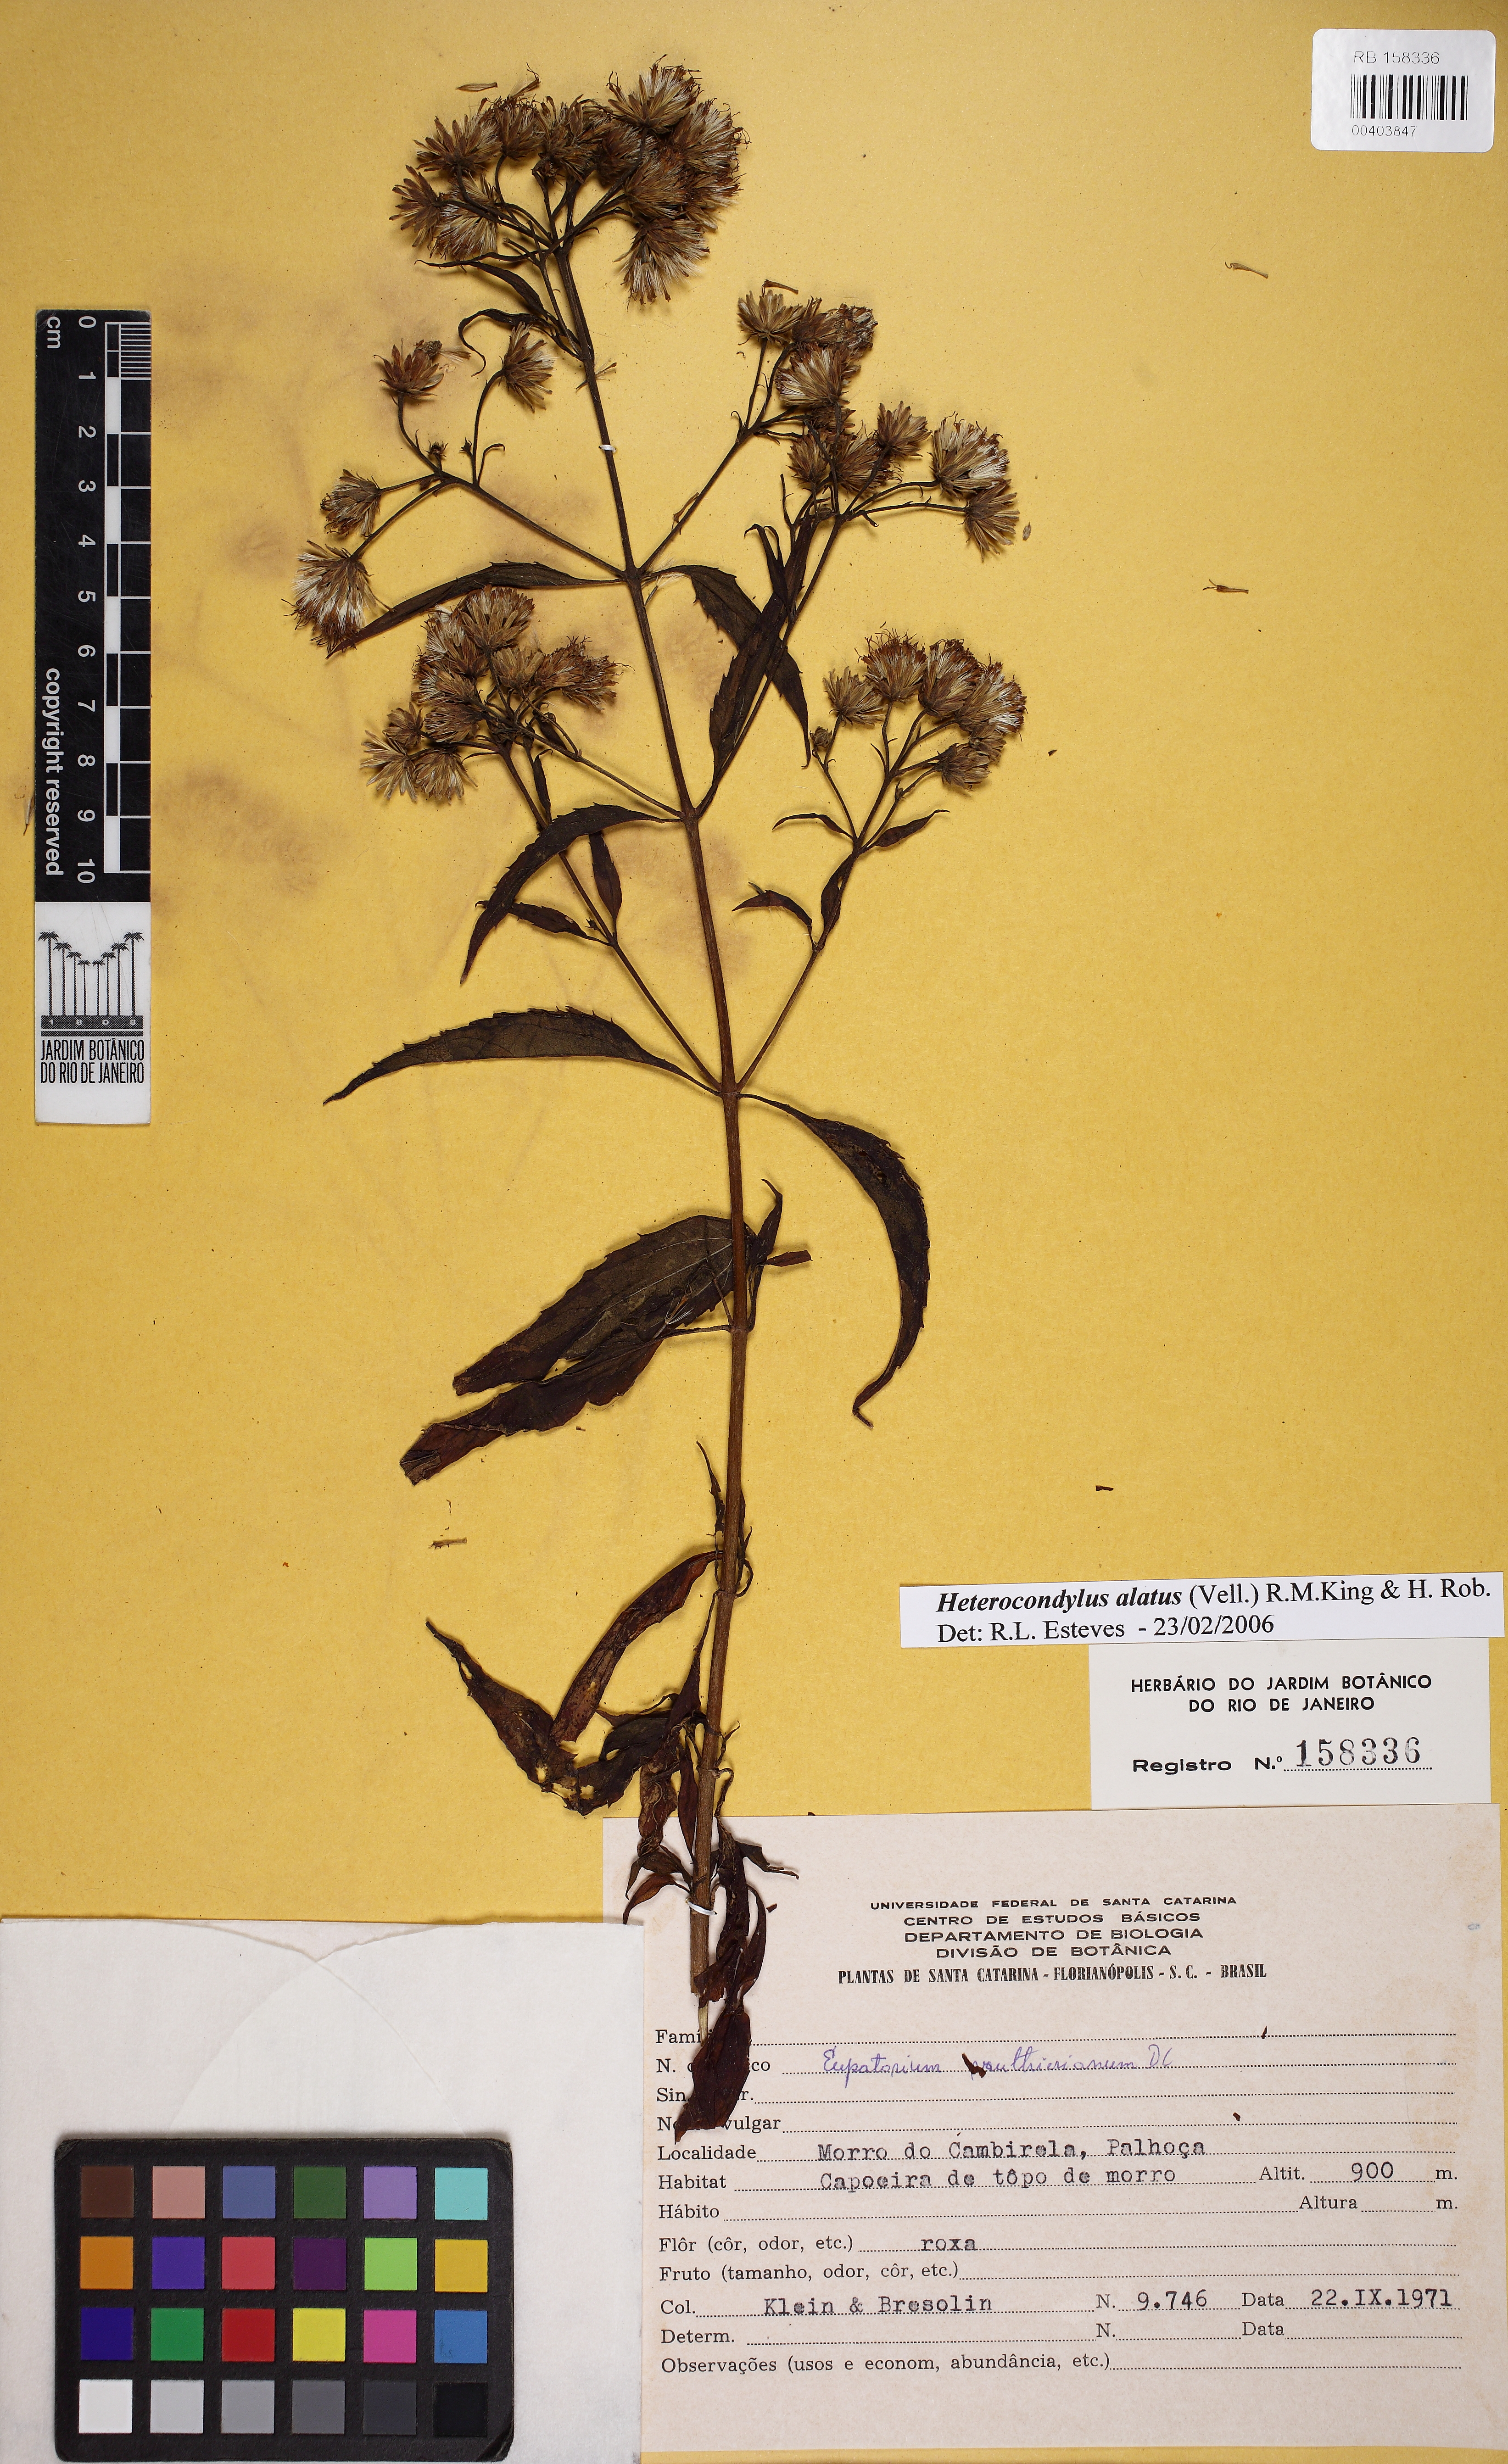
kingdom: Plantae
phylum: Tracheophyta
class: Magnoliopsida
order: Asterales
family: Asteraceae
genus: Heterocondylus
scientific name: Heterocondylus alatus
